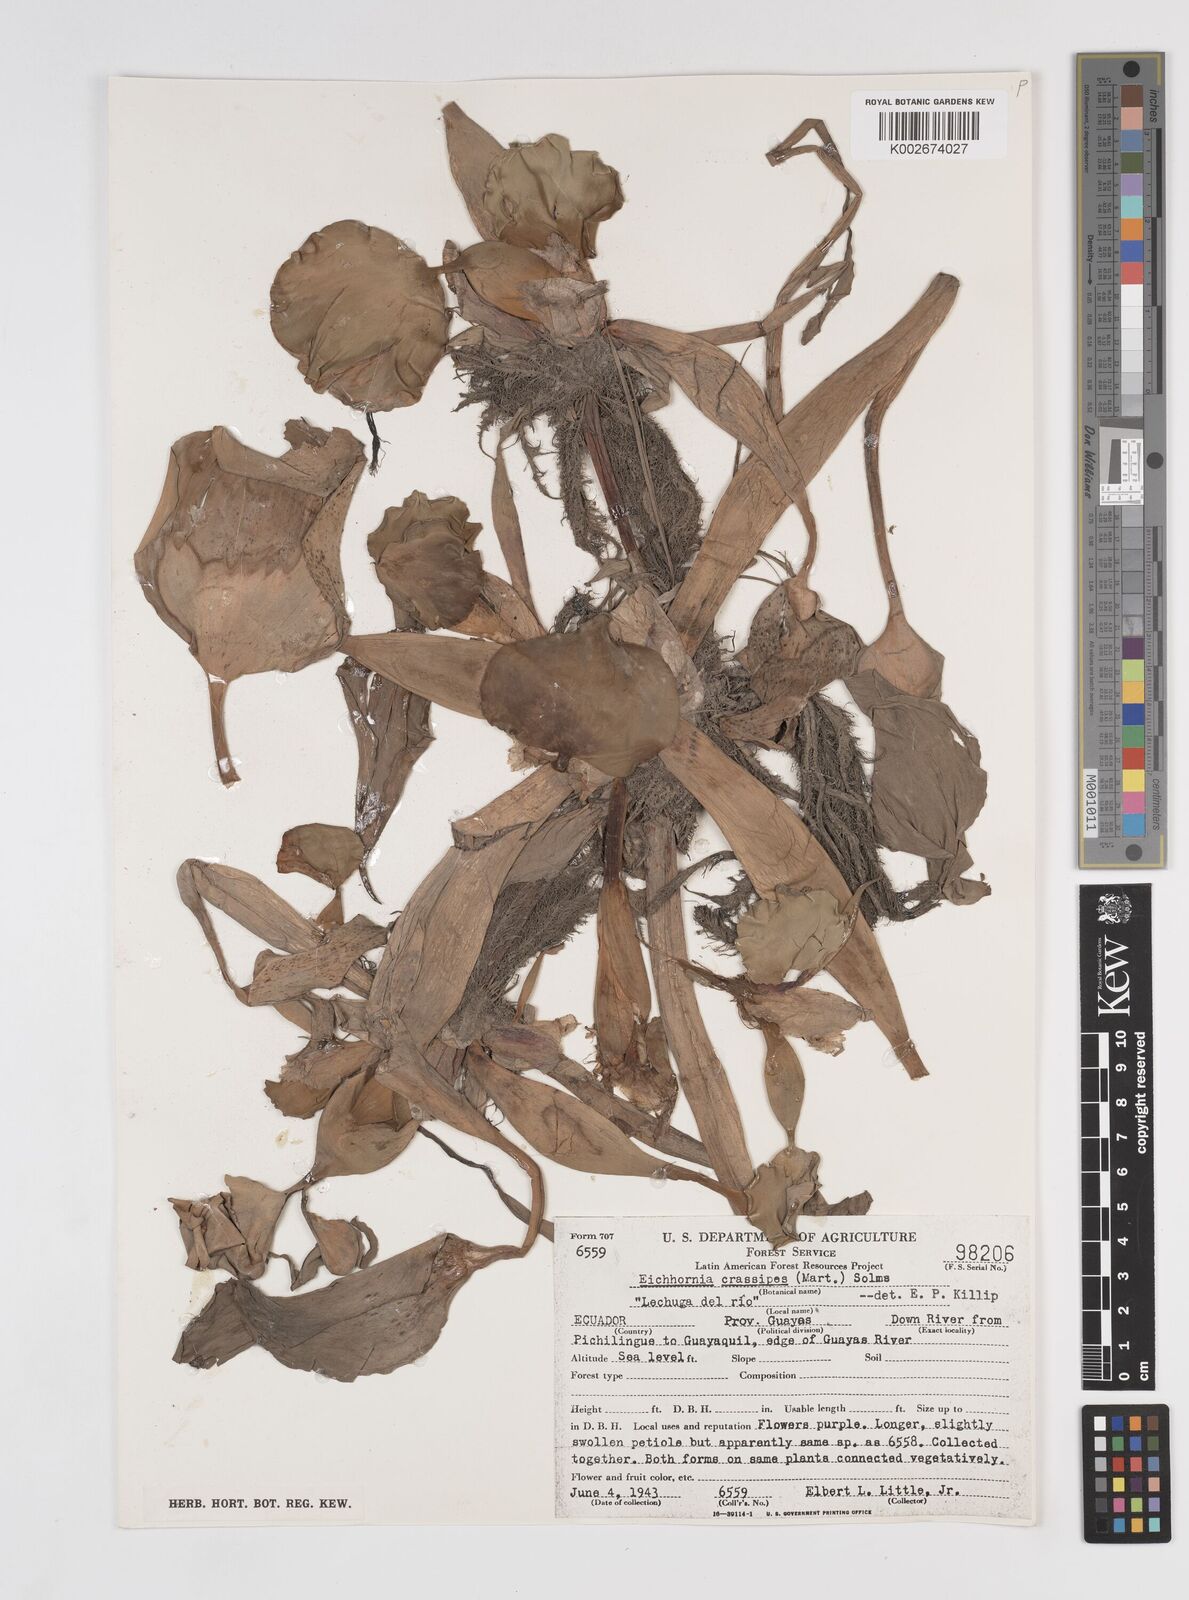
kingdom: Plantae
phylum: Tracheophyta
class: Liliopsida
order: Commelinales
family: Pontederiaceae
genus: Pontederia
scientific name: Pontederia crassipes
